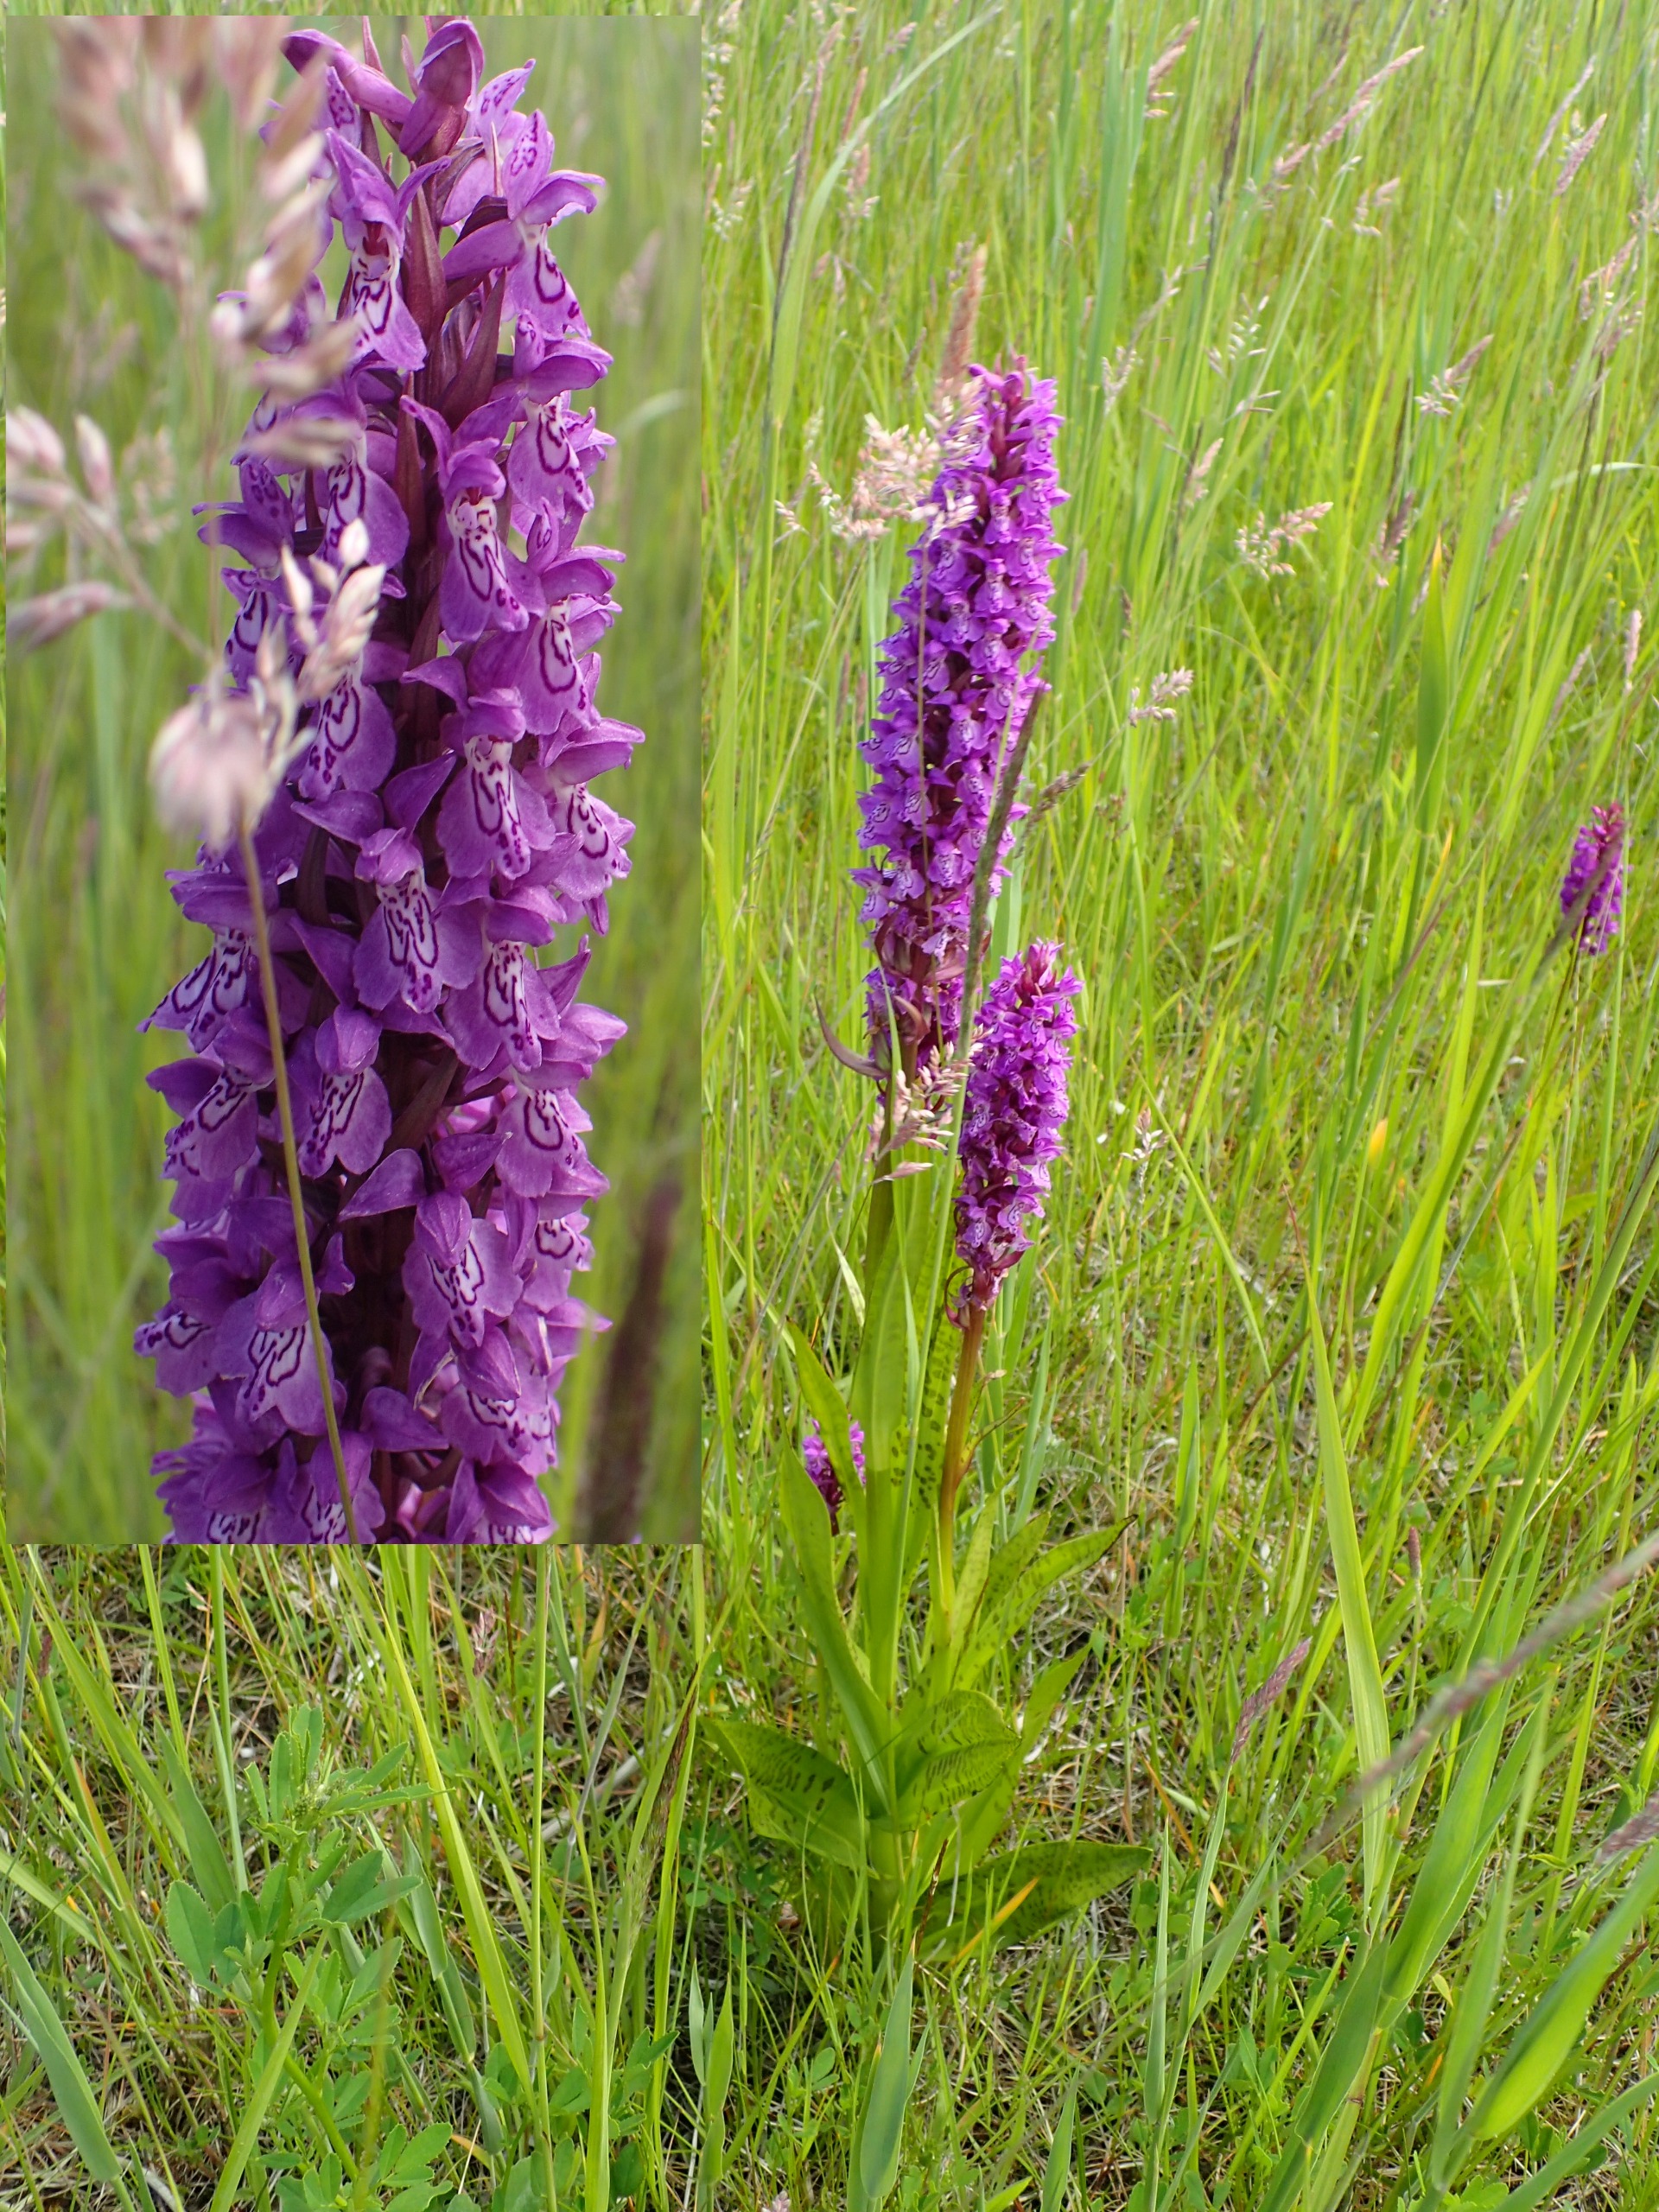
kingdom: Plantae
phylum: Tracheophyta
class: Liliopsida
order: Asparagales
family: Orchidaceae
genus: Dactylorhiza
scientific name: Dactylorhiza majalis
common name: Ringplettet gøgeurt
